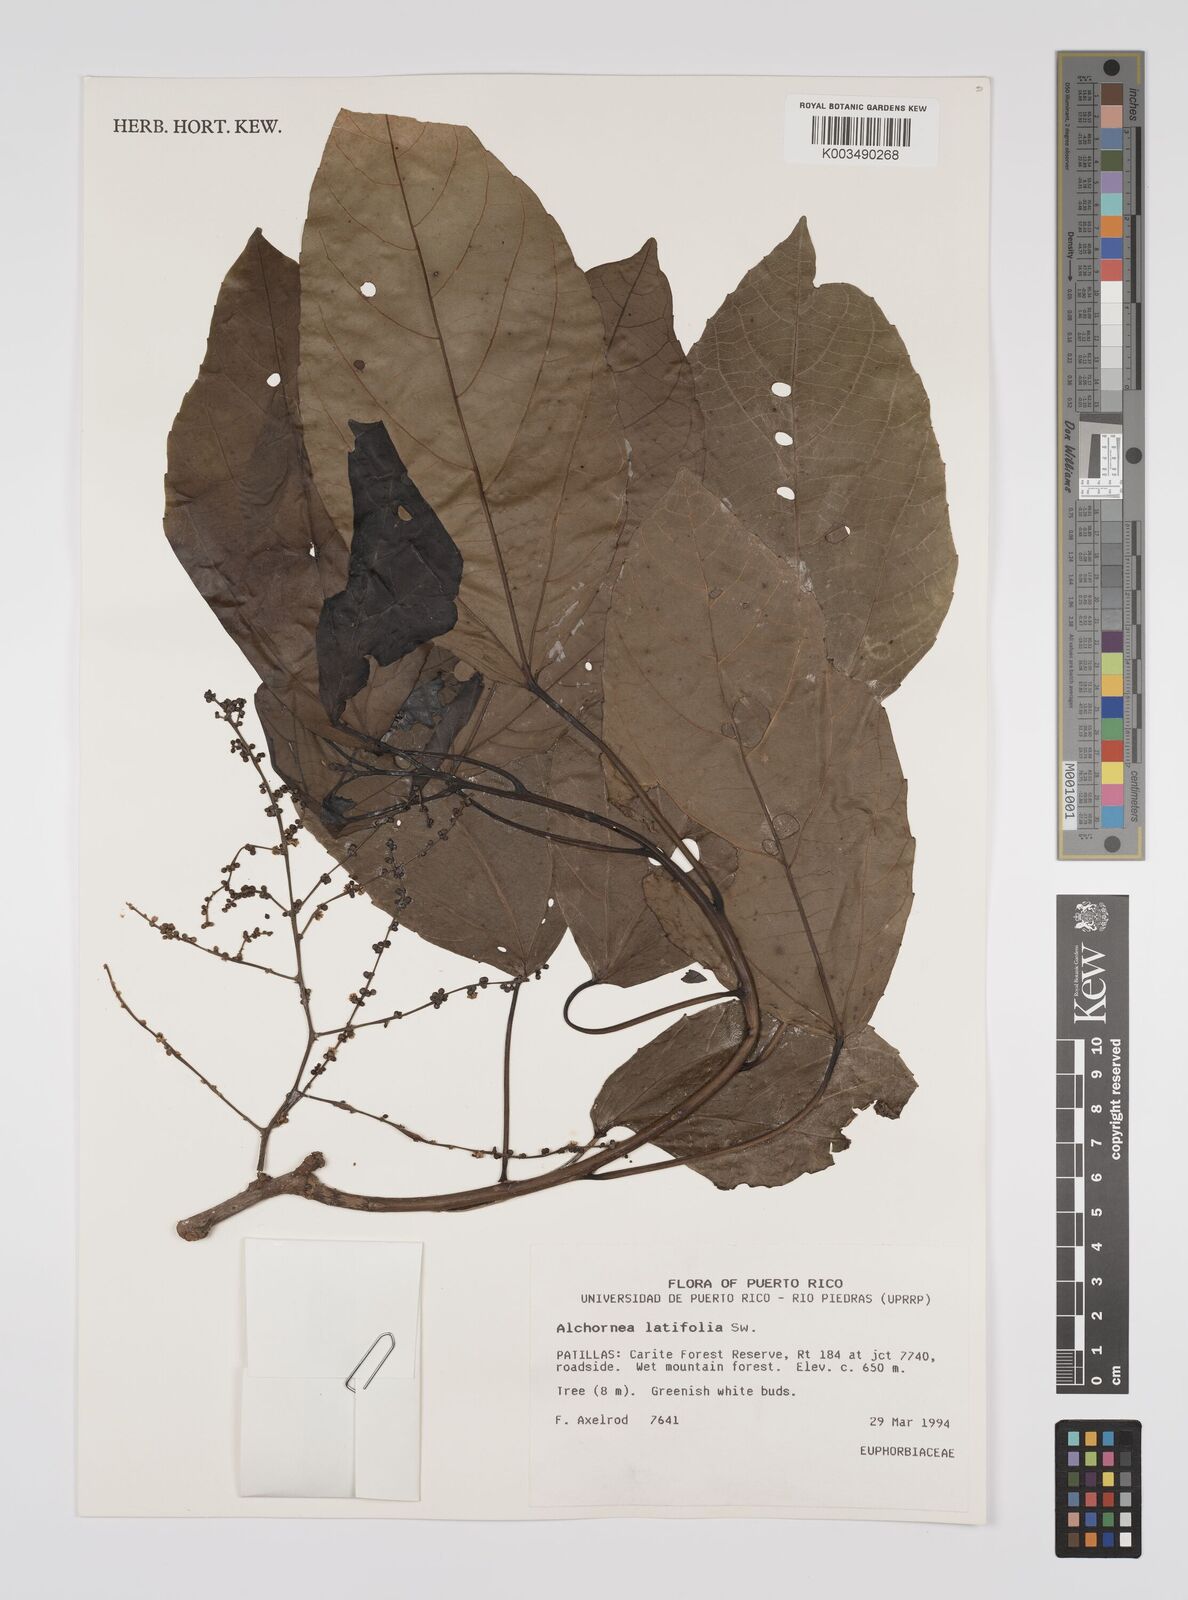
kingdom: Plantae
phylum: Tracheophyta
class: Magnoliopsida
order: Malpighiales
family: Euphorbiaceae
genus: Alchornea
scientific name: Alchornea latifolia
